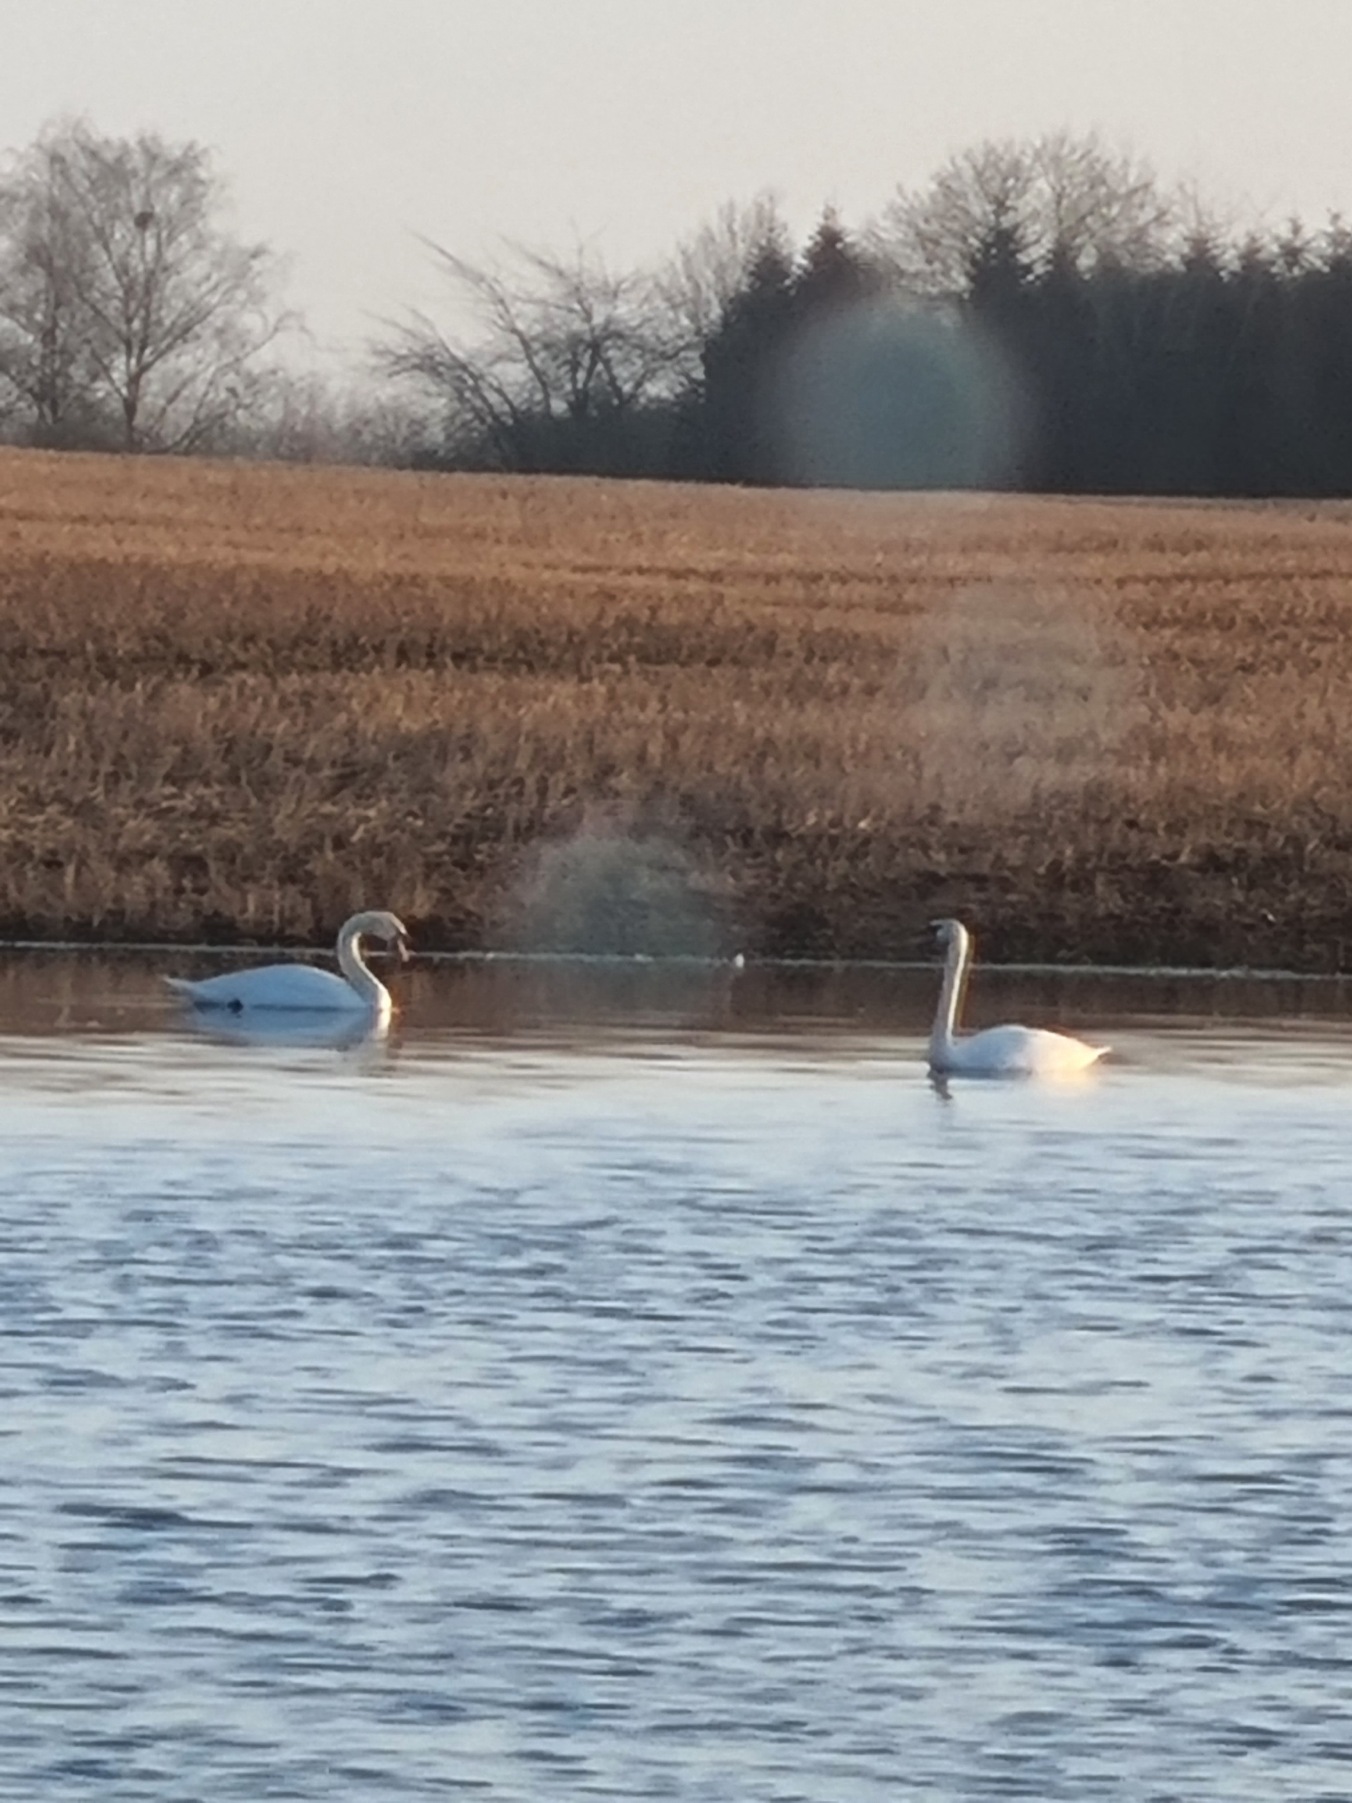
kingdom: Animalia
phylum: Chordata
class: Aves
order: Anseriformes
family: Anatidae
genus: Cygnus
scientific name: Cygnus olor
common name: Knopsvane
